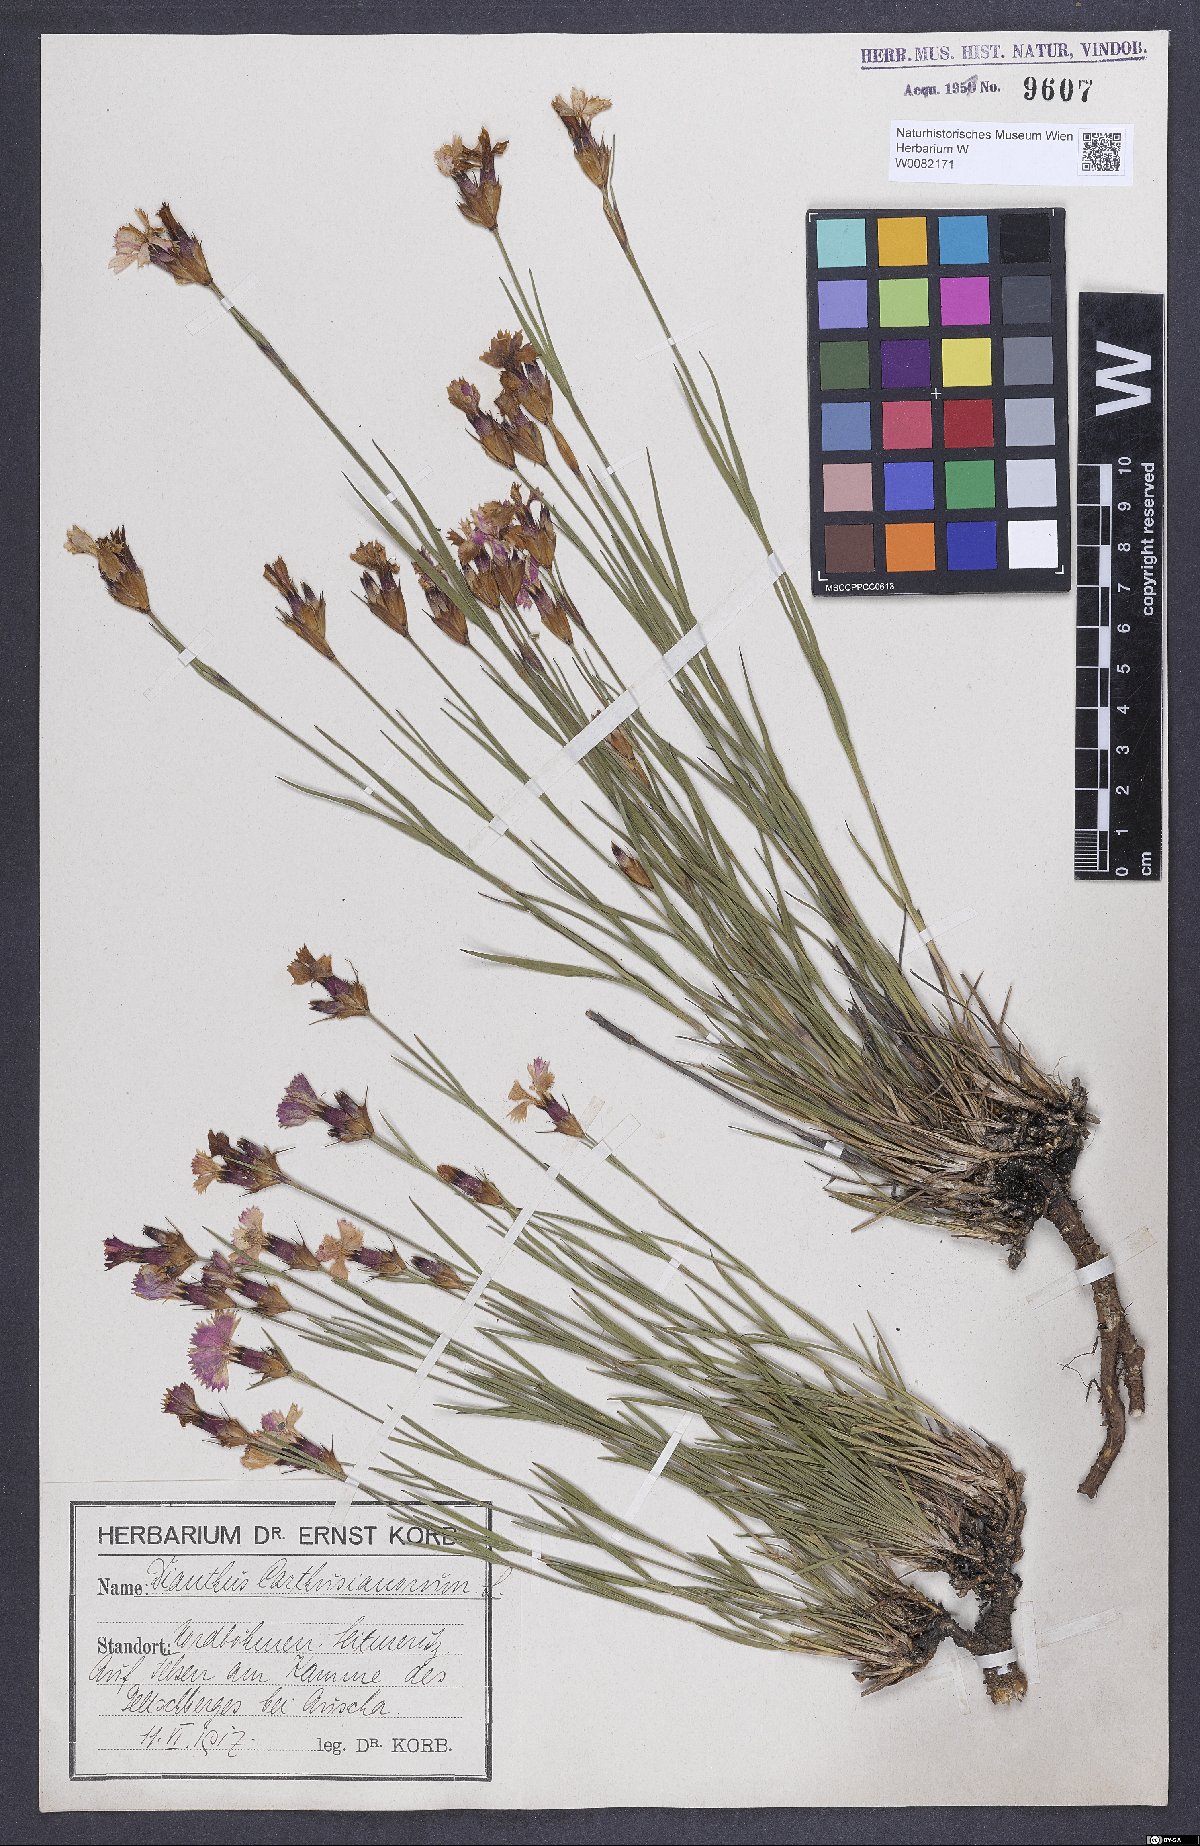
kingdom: Plantae
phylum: Tracheophyta
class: Magnoliopsida
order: Caryophyllales
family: Caryophyllaceae
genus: Dianthus
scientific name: Dianthus carthusianorum
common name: Carthusian pink
